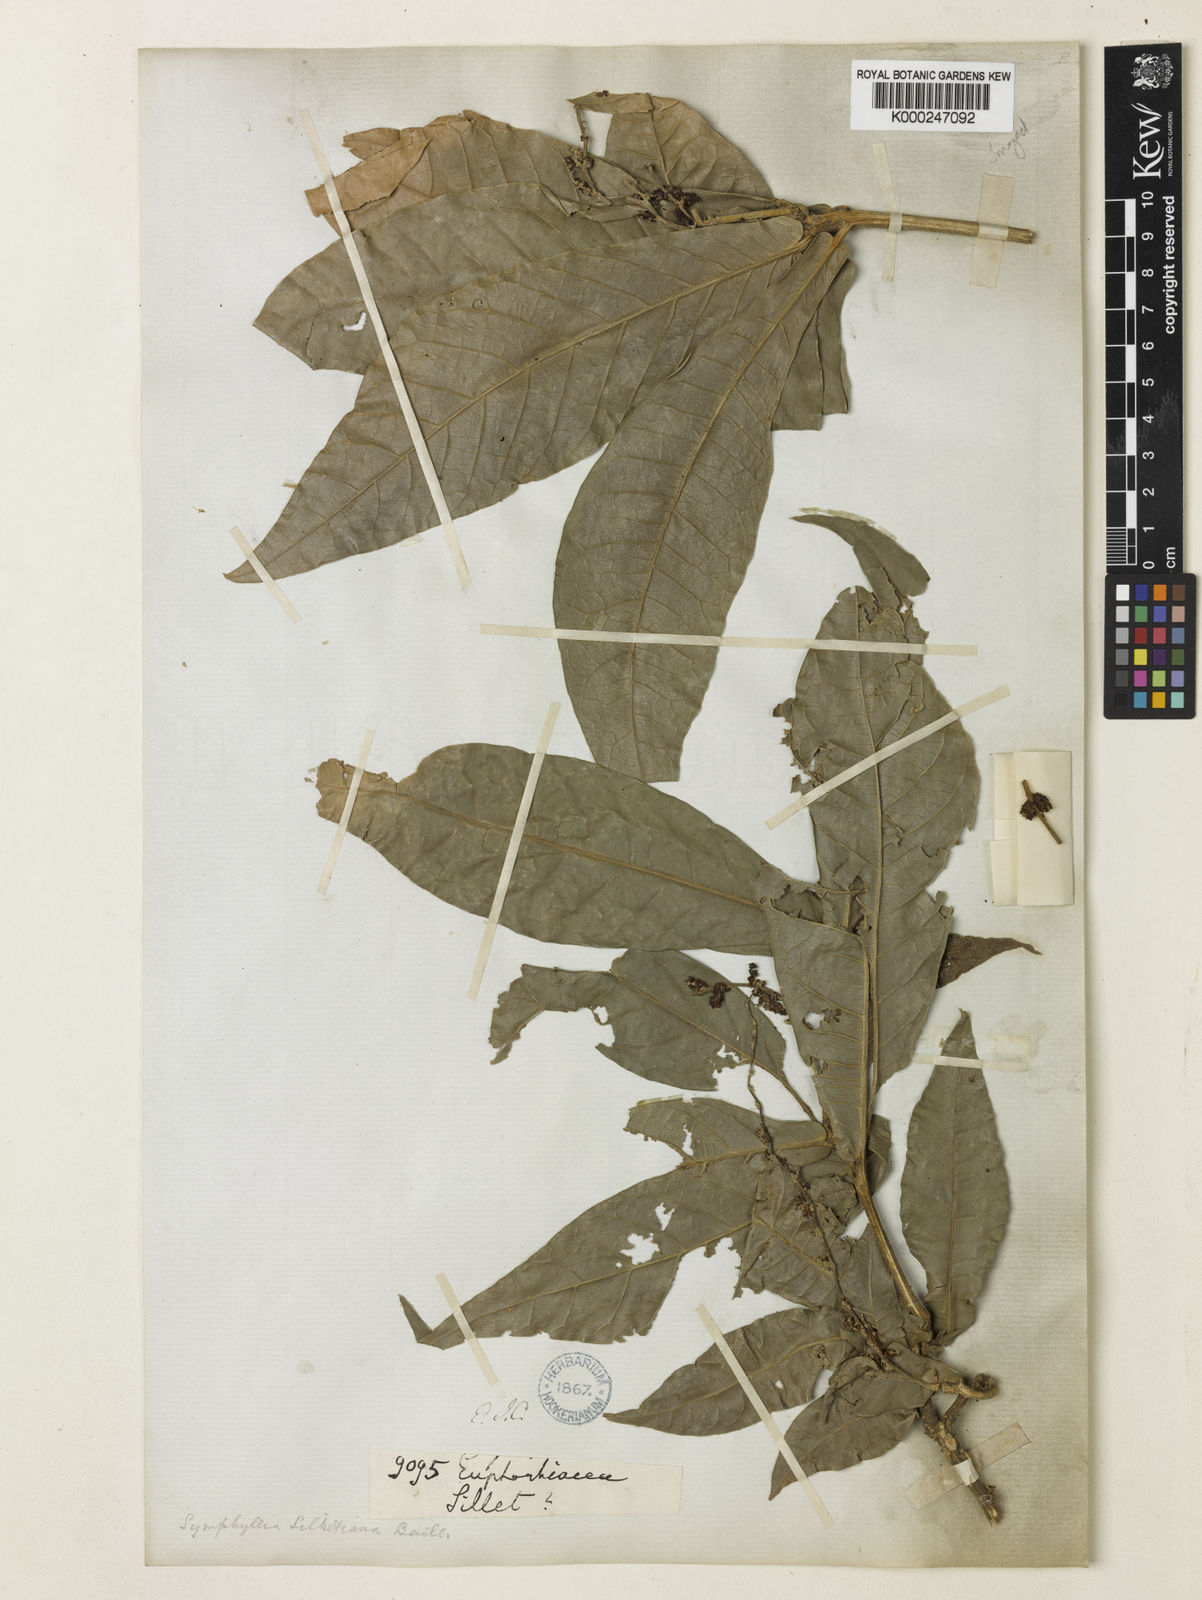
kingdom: Plantae
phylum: Tracheophyta
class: Magnoliopsida
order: Malpighiales
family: Euphorbiaceae
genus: Epiprinus
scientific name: Epiprinus siletianus
